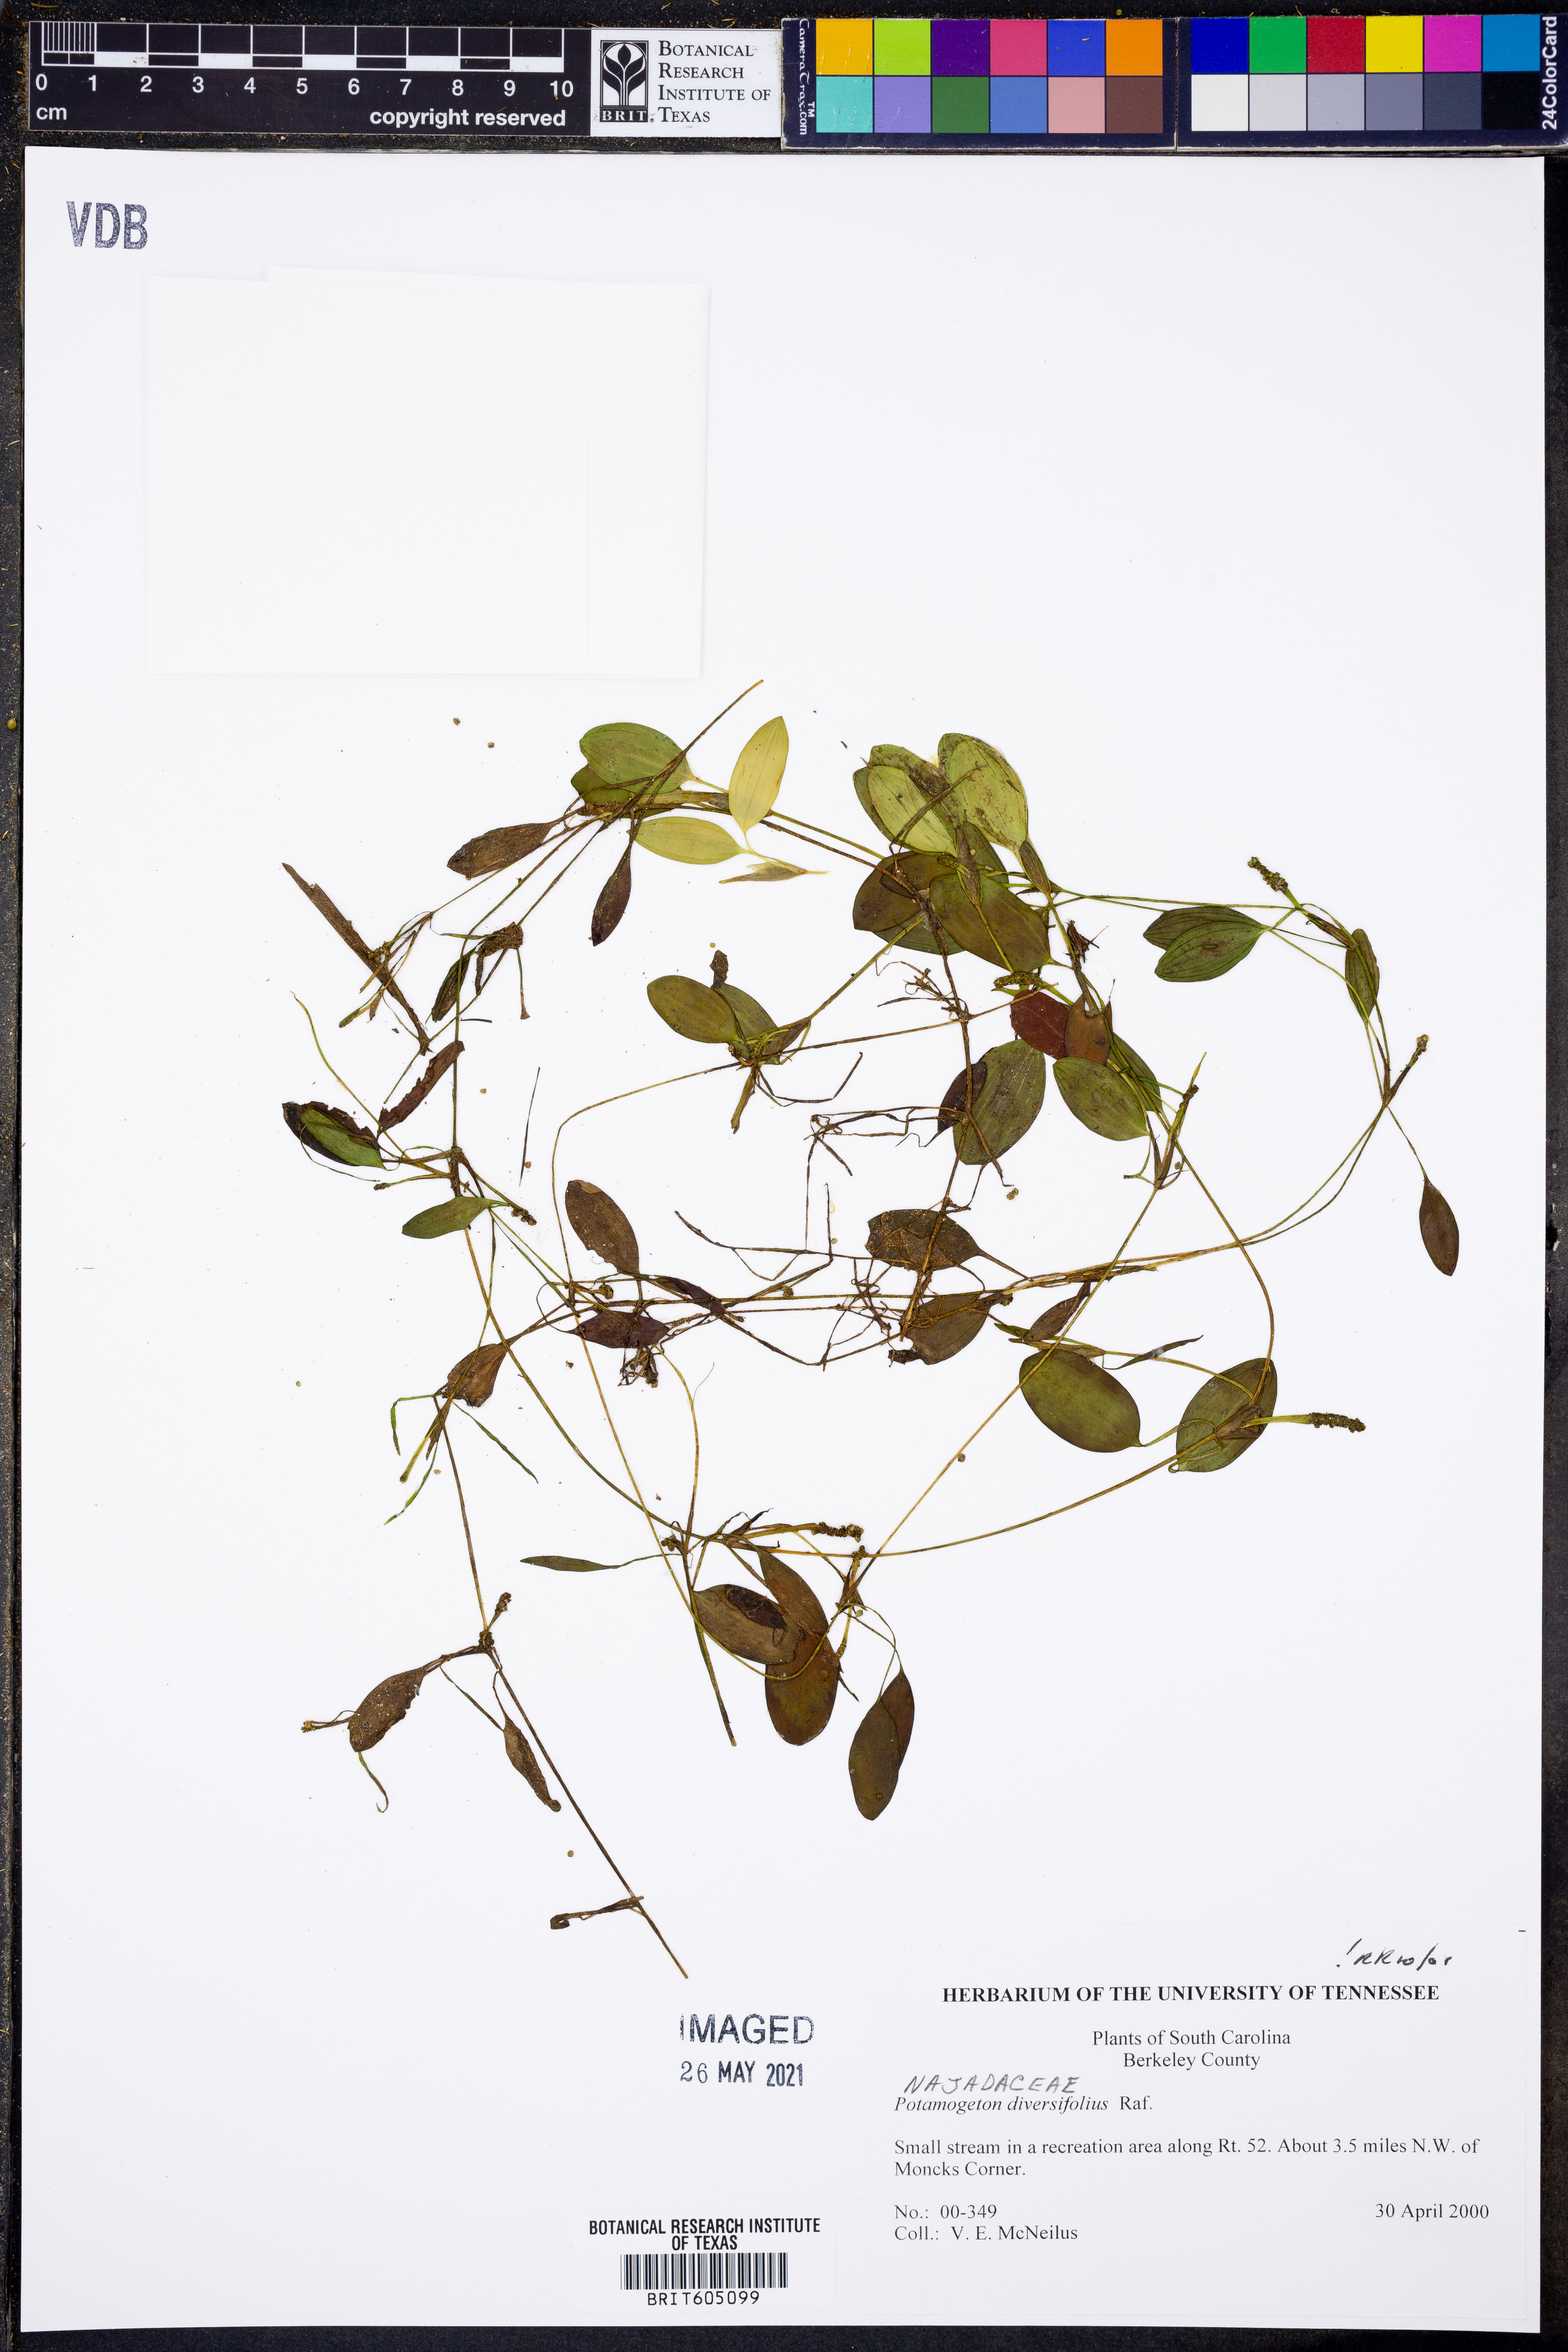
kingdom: Plantae
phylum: Tracheophyta
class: Liliopsida
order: Alismatales
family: Potamogetonaceae
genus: Potamogeton
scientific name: Potamogeton diversifolius
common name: Water-thread pondweed
